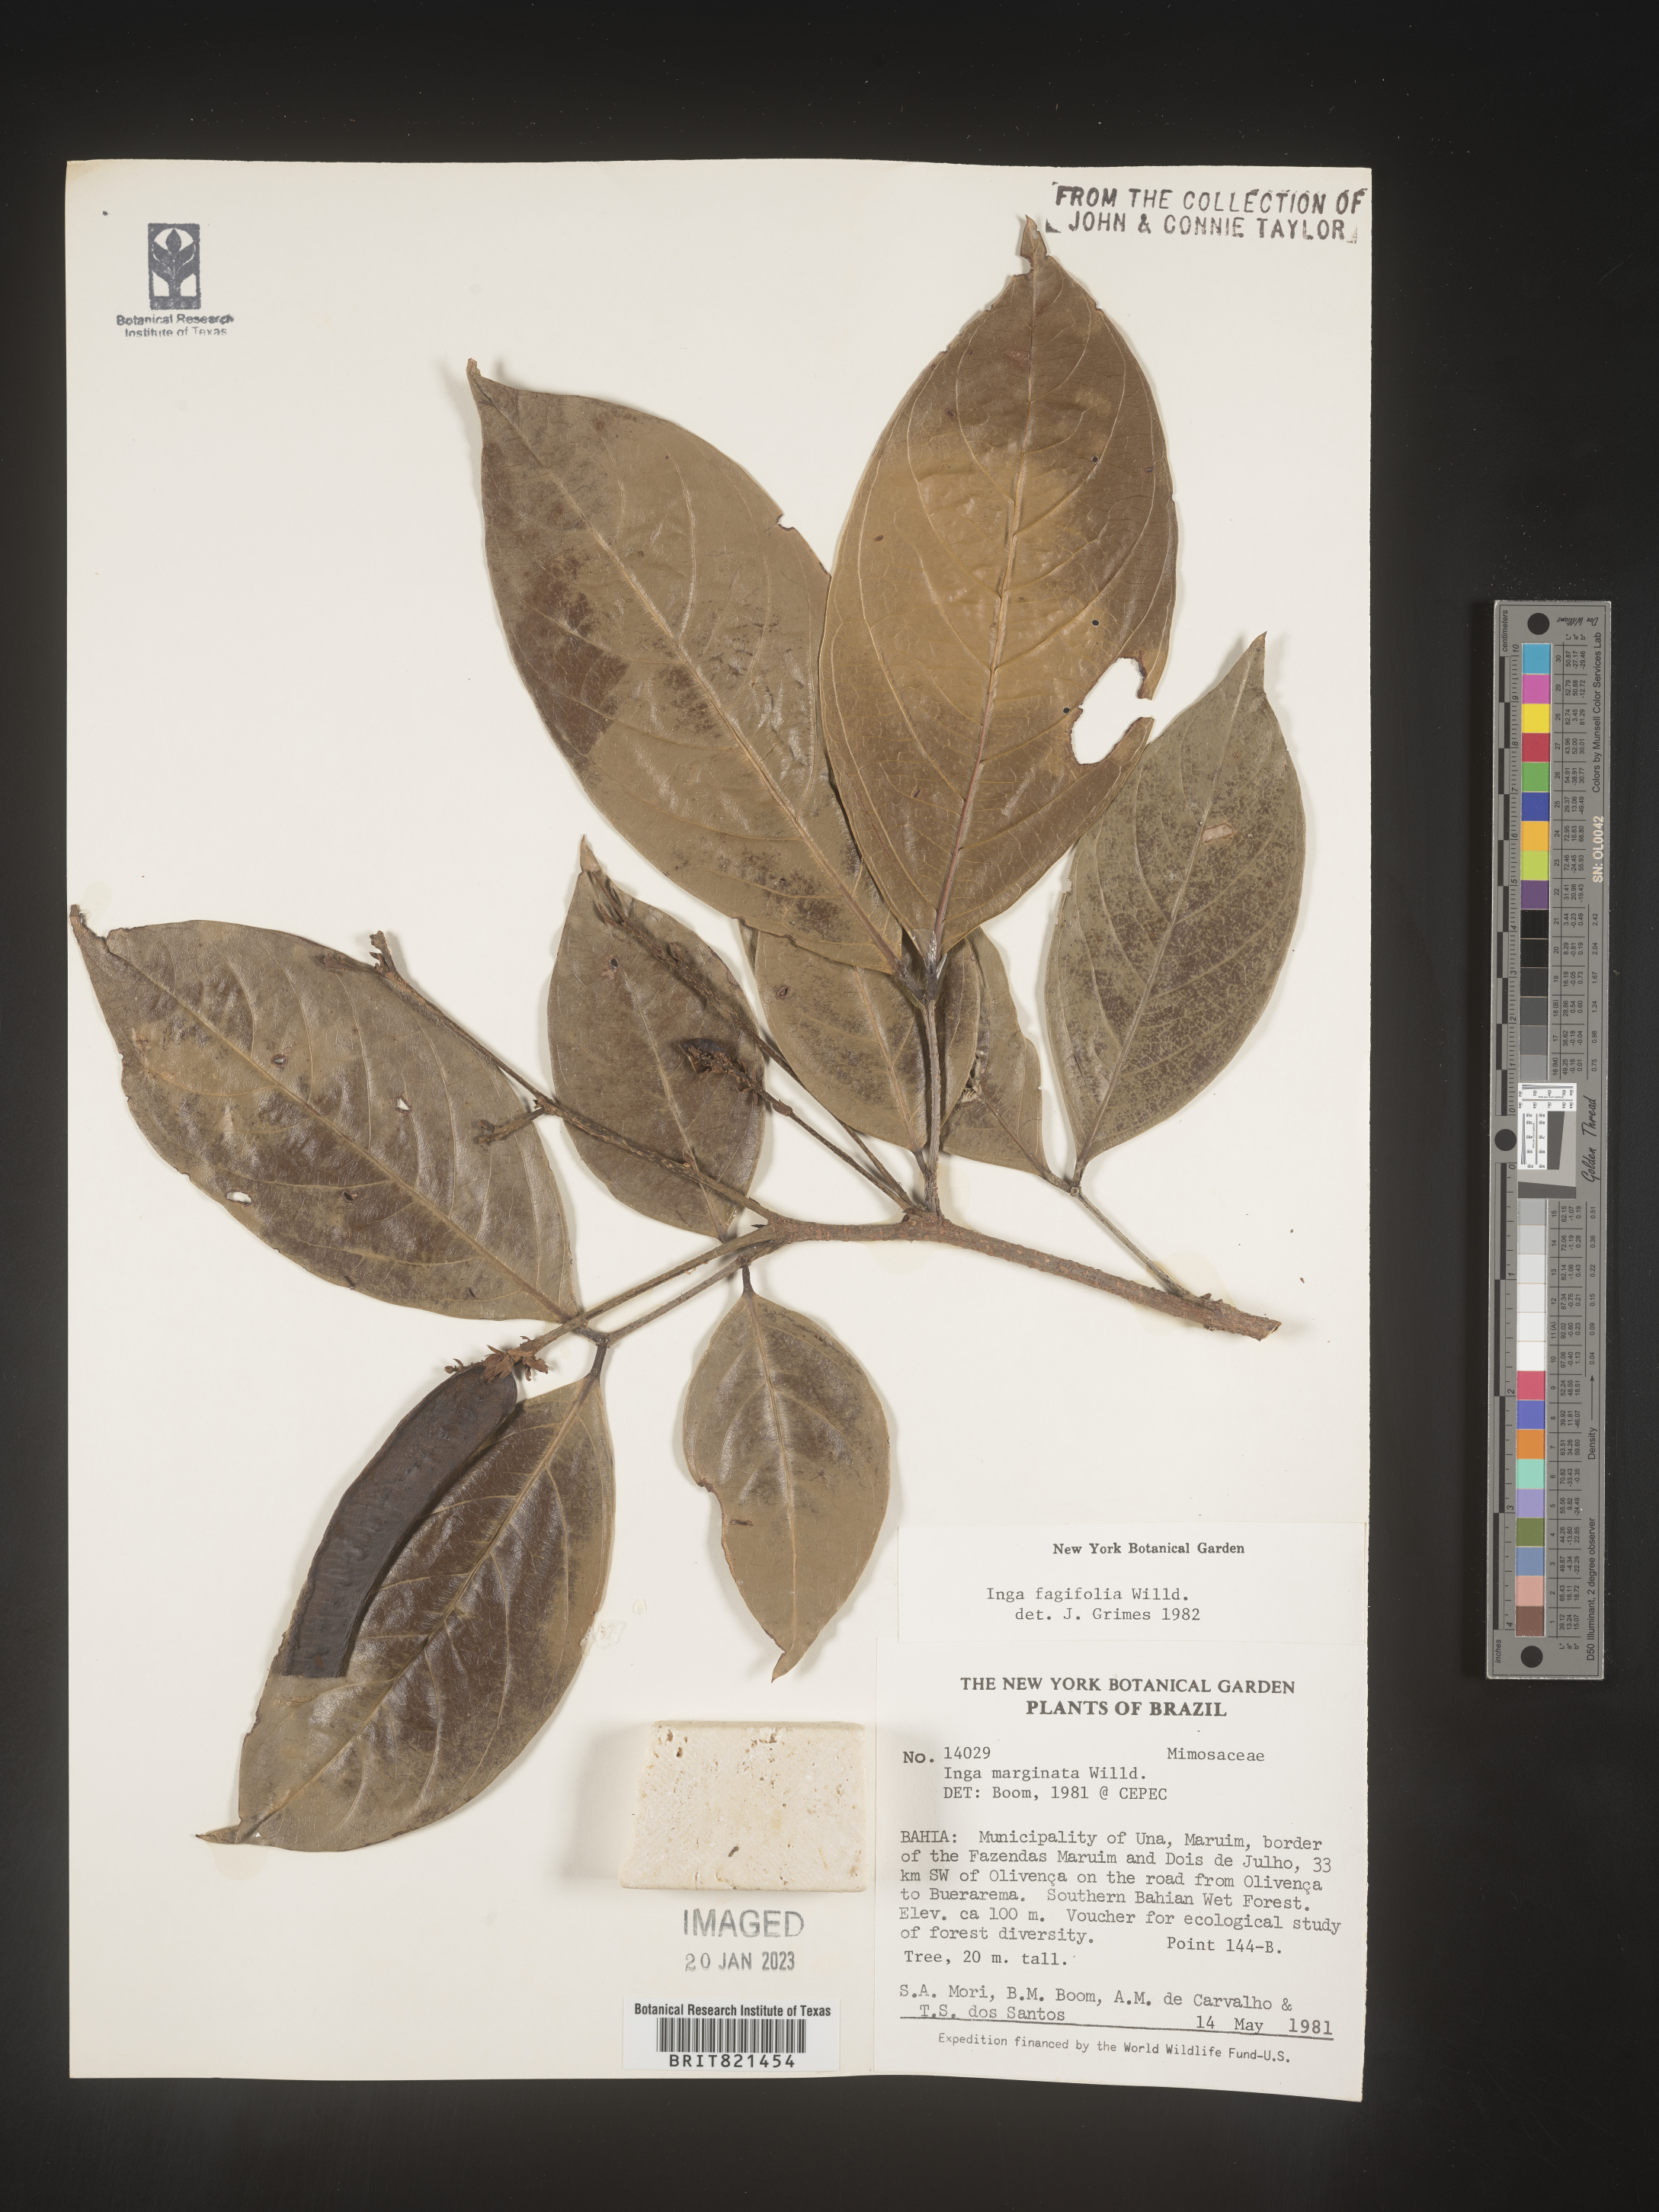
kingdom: Plantae
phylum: Tracheophyta
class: Magnoliopsida
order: Fabales
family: Fabaceae
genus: Inga
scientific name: Inga
